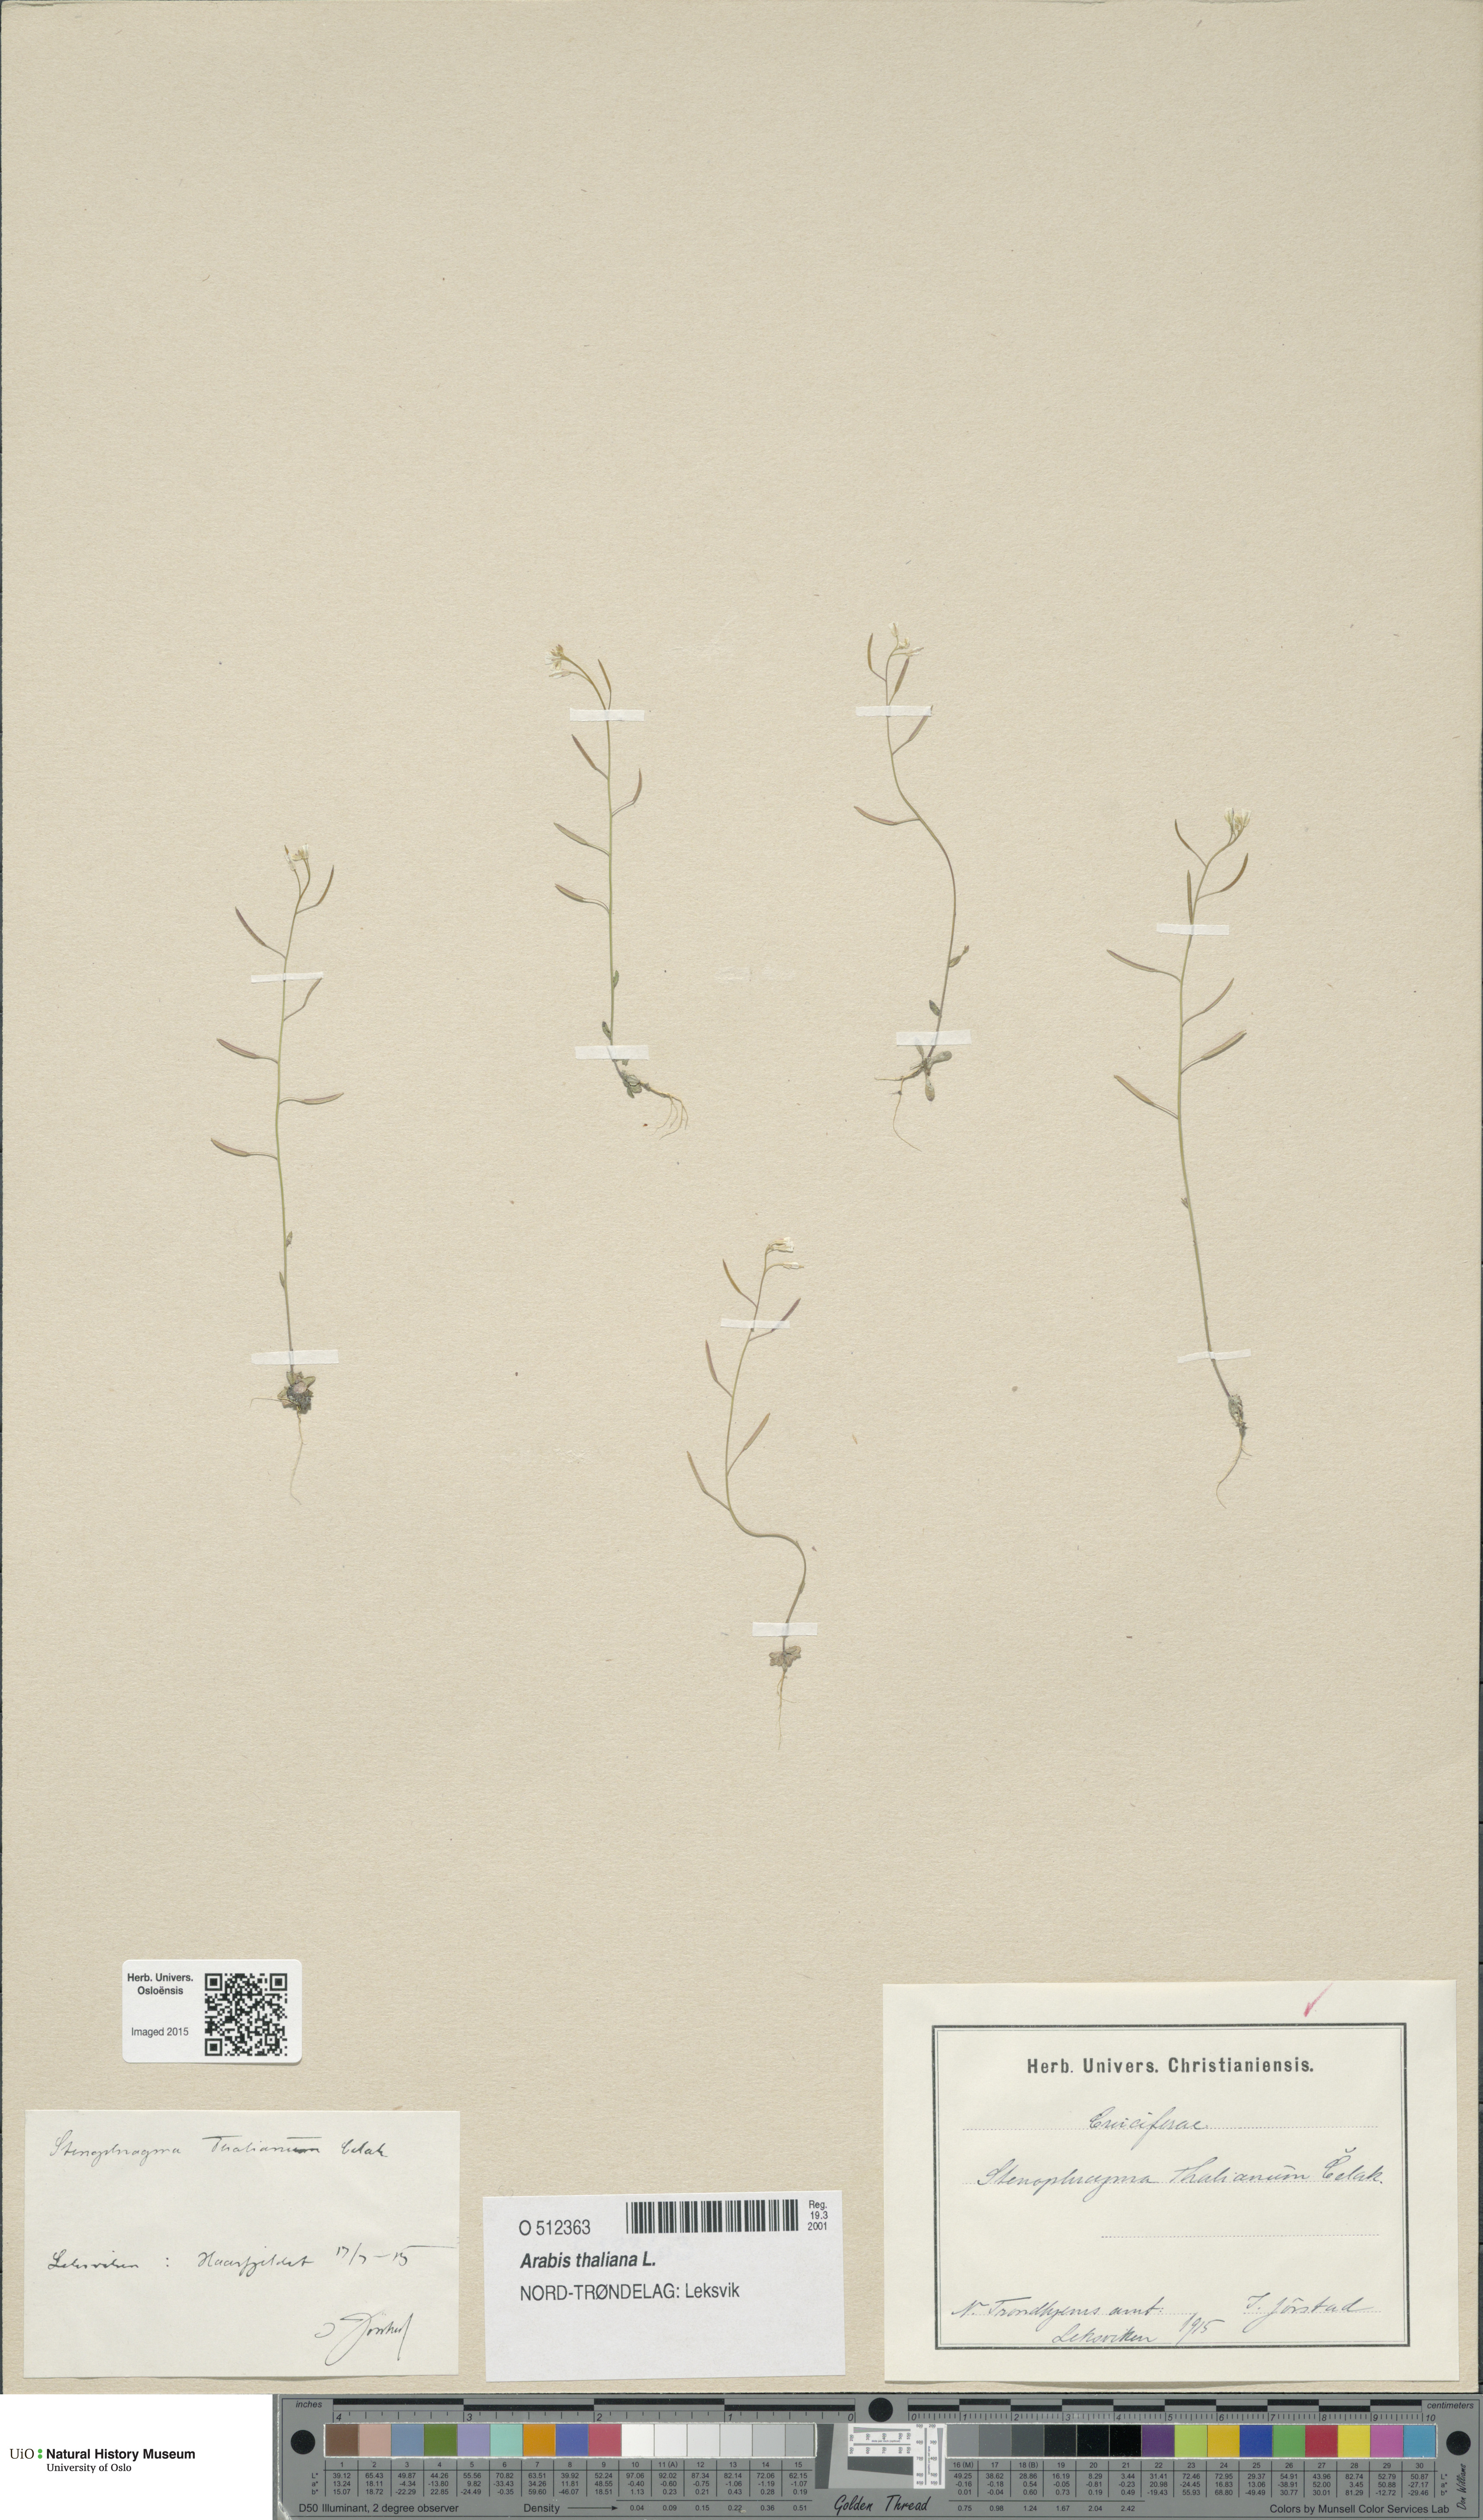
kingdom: Plantae
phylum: Tracheophyta
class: Magnoliopsida
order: Brassicales
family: Brassicaceae
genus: Arabidopsis
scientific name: Arabidopsis thaliana
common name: Thale cress
